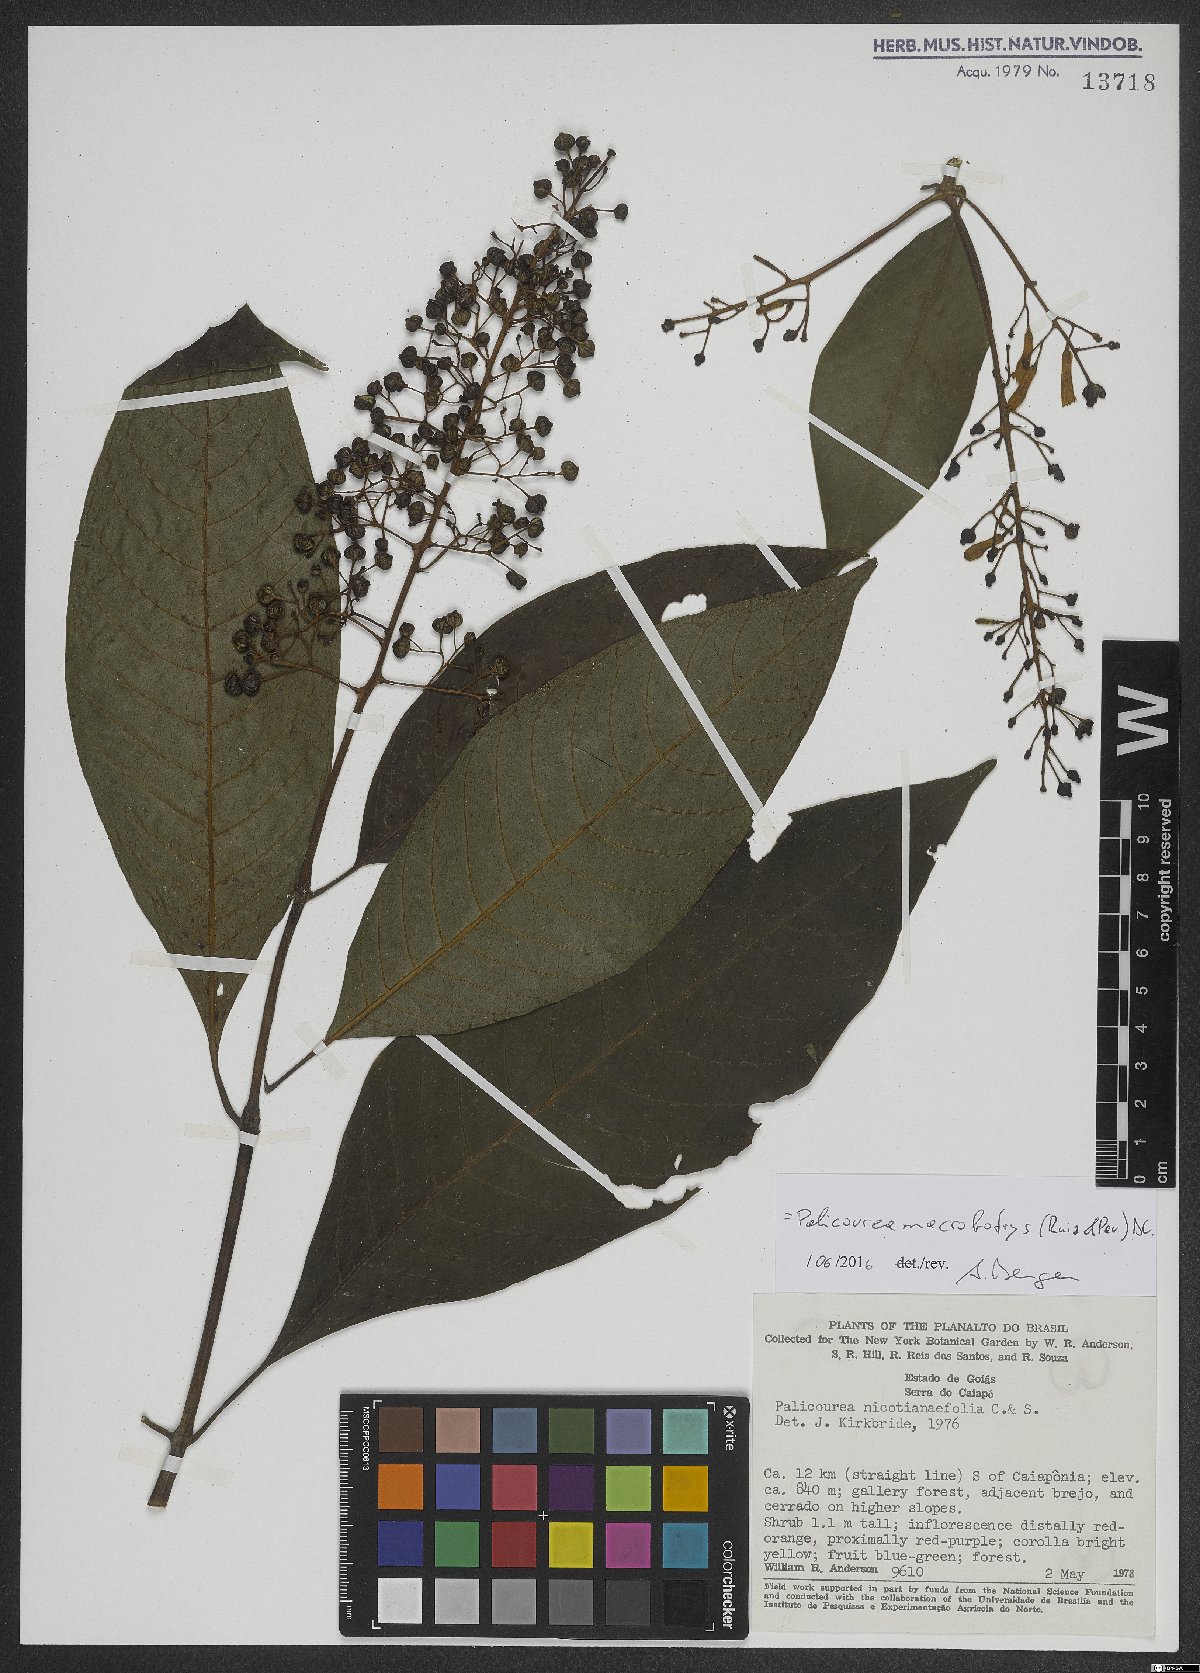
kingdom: Plantae
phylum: Tracheophyta
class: Magnoliopsida
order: Gentianales
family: Rubiaceae
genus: Palicourea
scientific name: Palicourea macrobotrys
